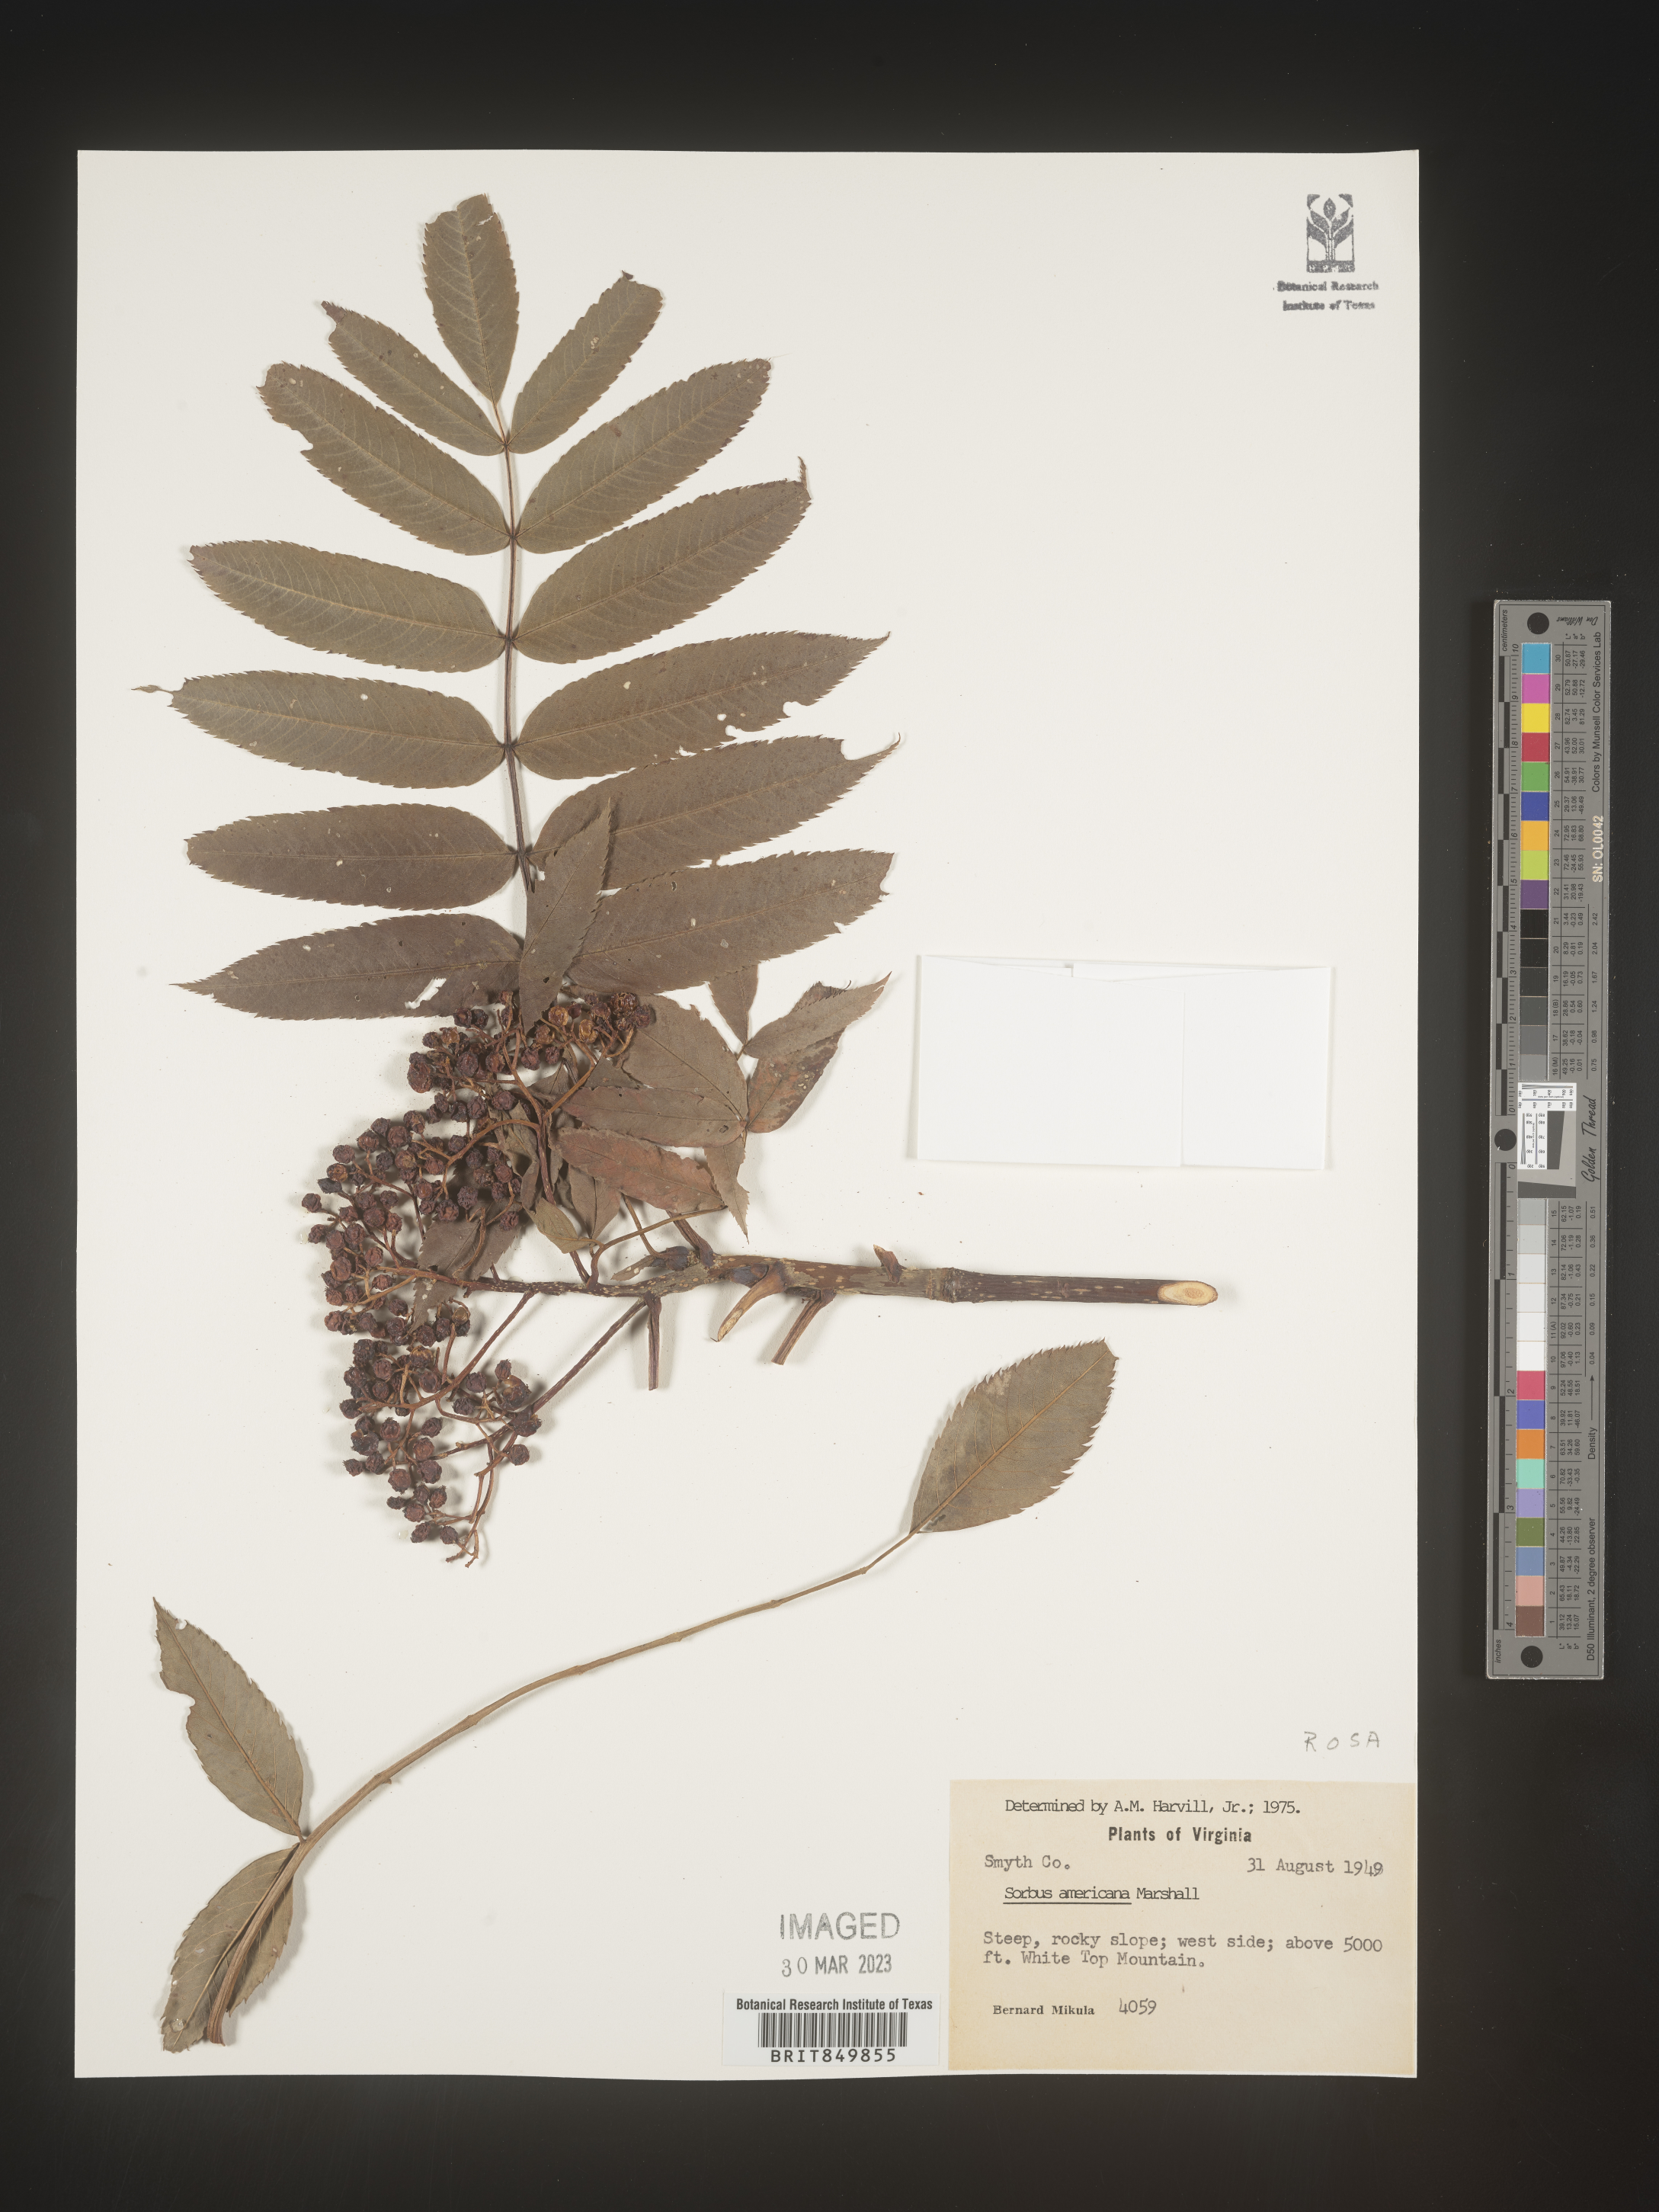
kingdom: Plantae
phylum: Tracheophyta
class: Magnoliopsida
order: Rosales
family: Rosaceae
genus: Sorbus
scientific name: Sorbus
